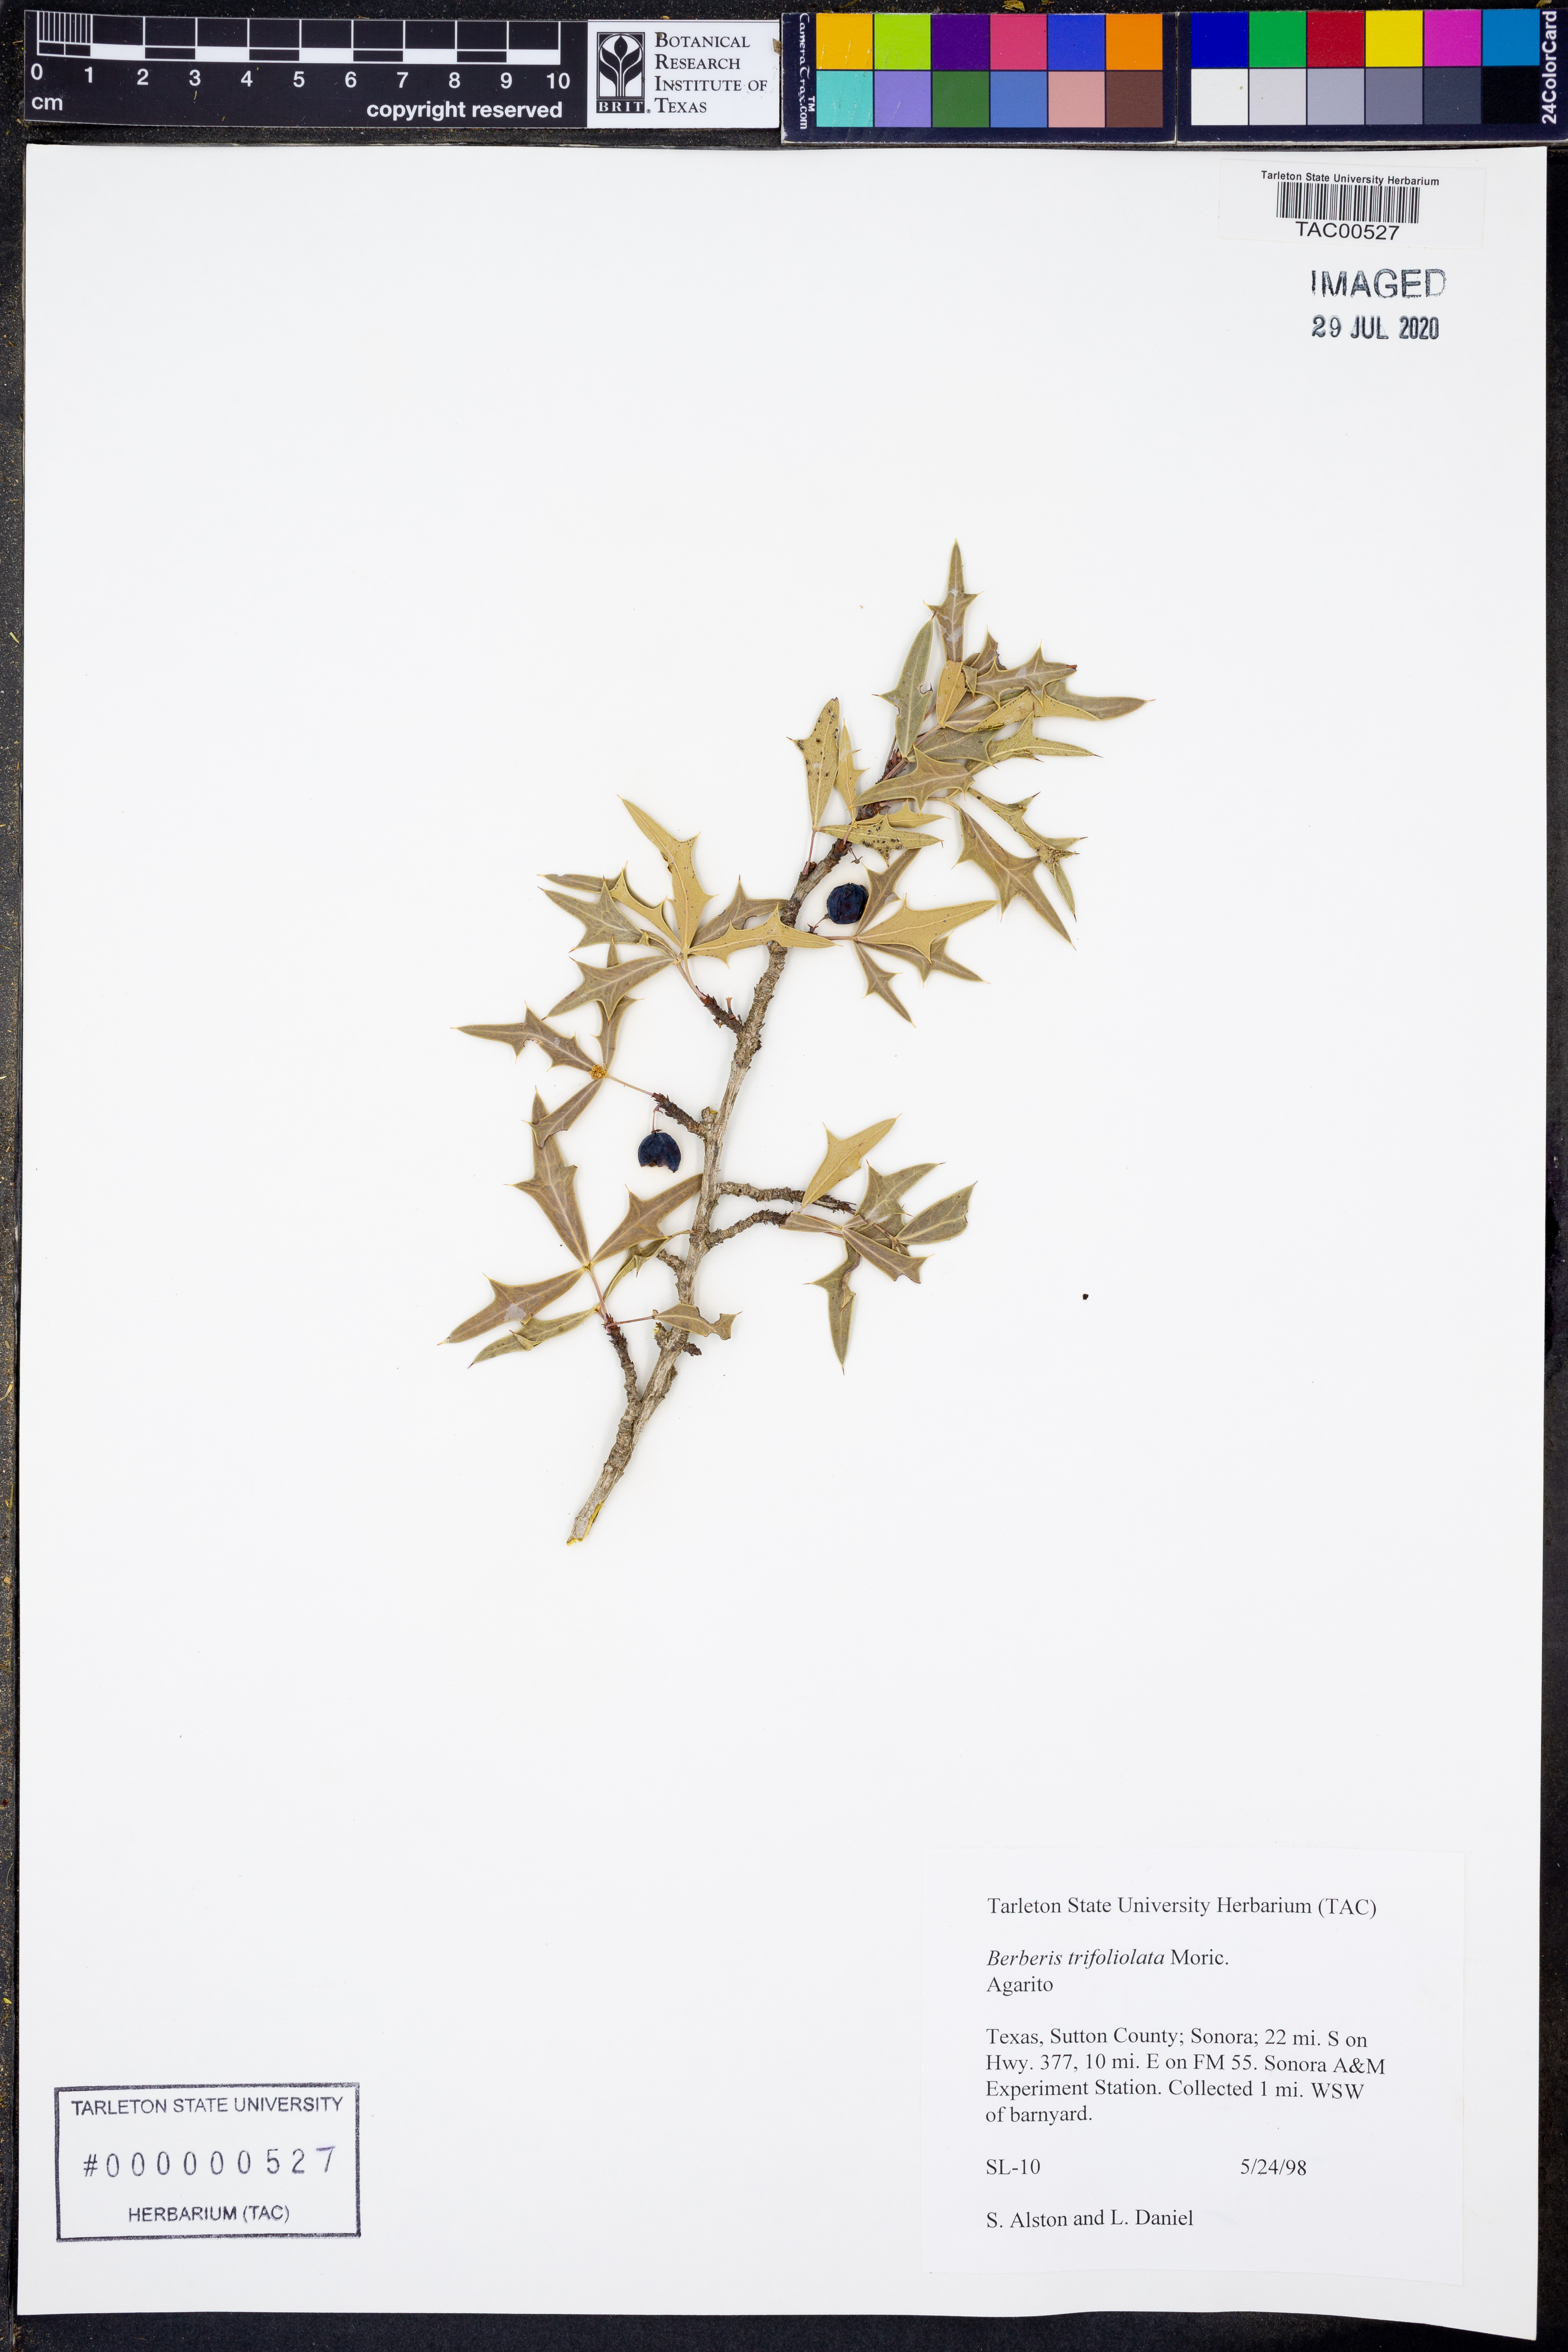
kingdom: Plantae
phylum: Tracheophyta
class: Magnoliopsida
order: Ranunculales
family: Berberidaceae
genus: Alloberberis
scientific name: Alloberberis trifoliolata
